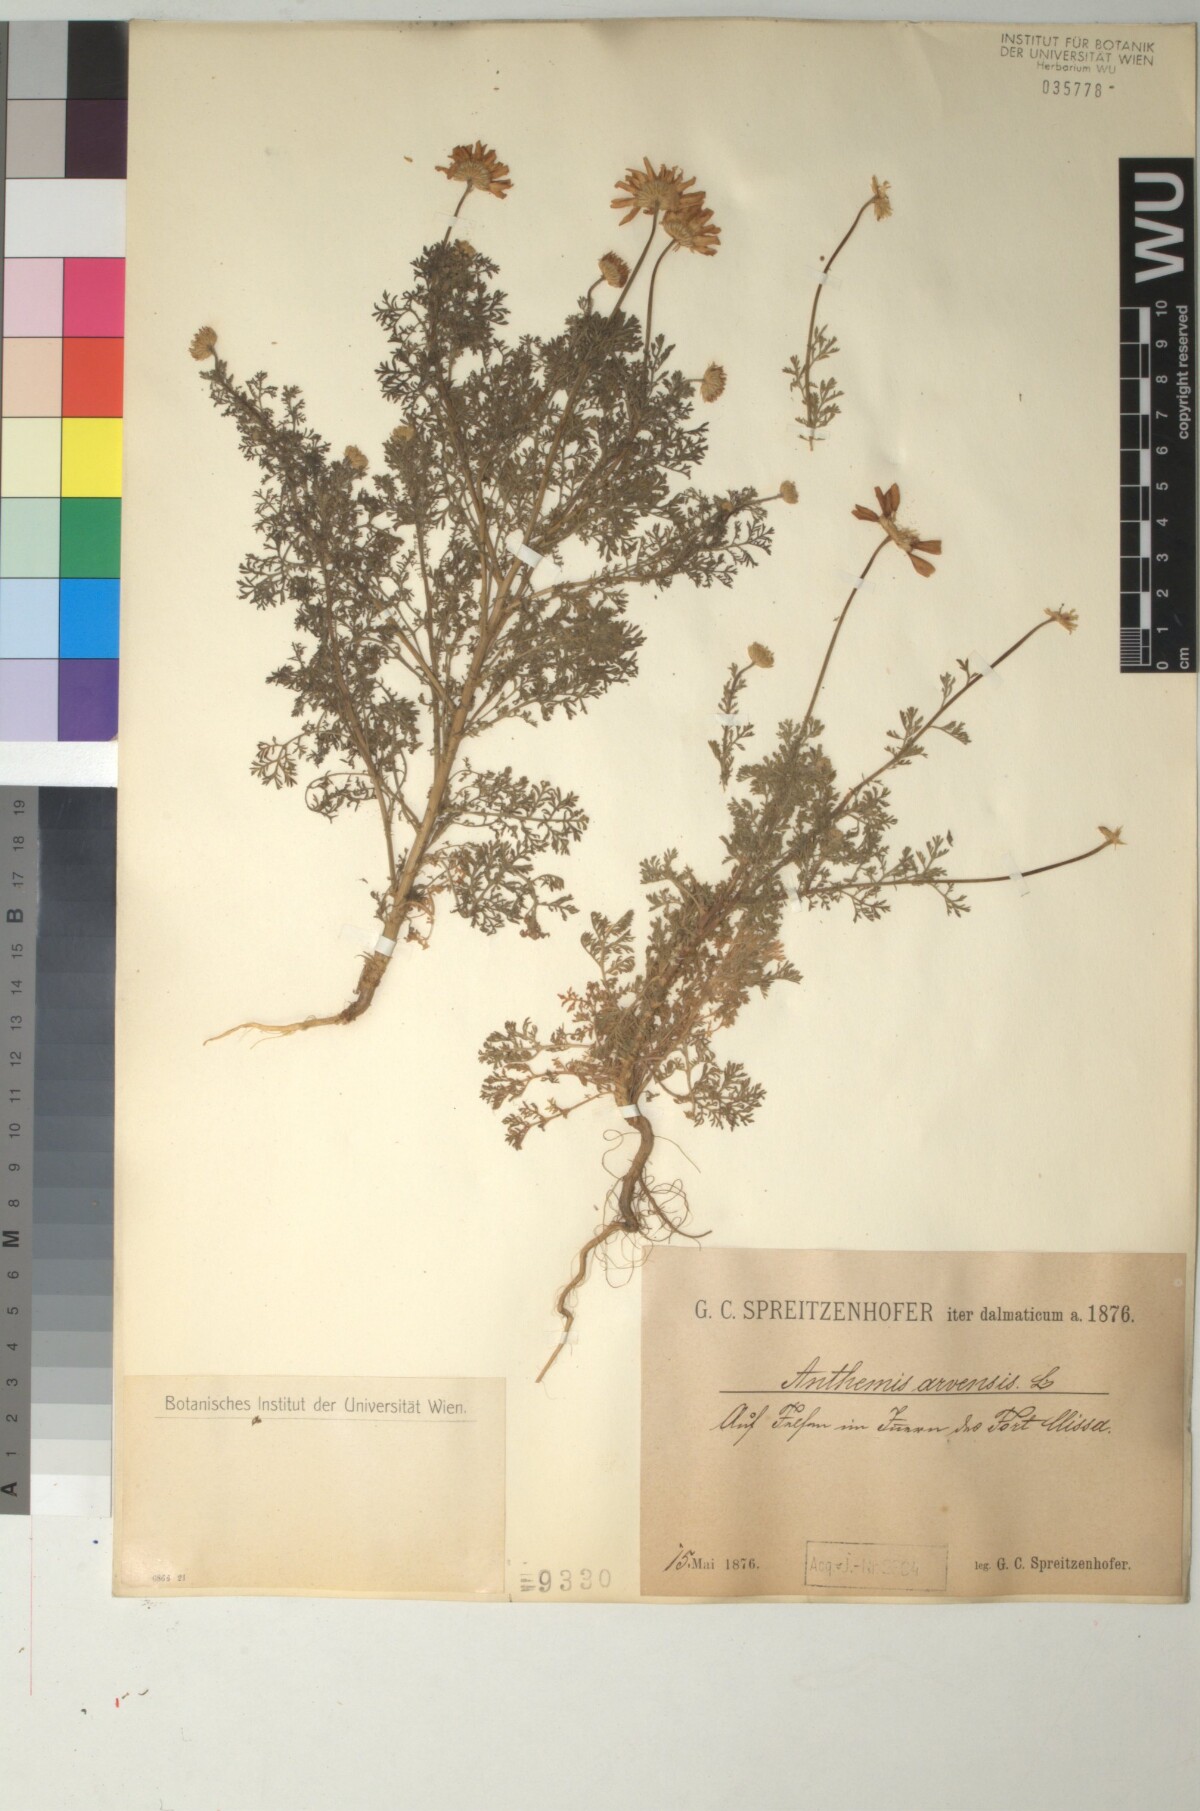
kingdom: Plantae
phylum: Tracheophyta
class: Magnoliopsida
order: Asterales
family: Asteraceae
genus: Anthemis
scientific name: Anthemis arvensis
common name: Corn chamomile
